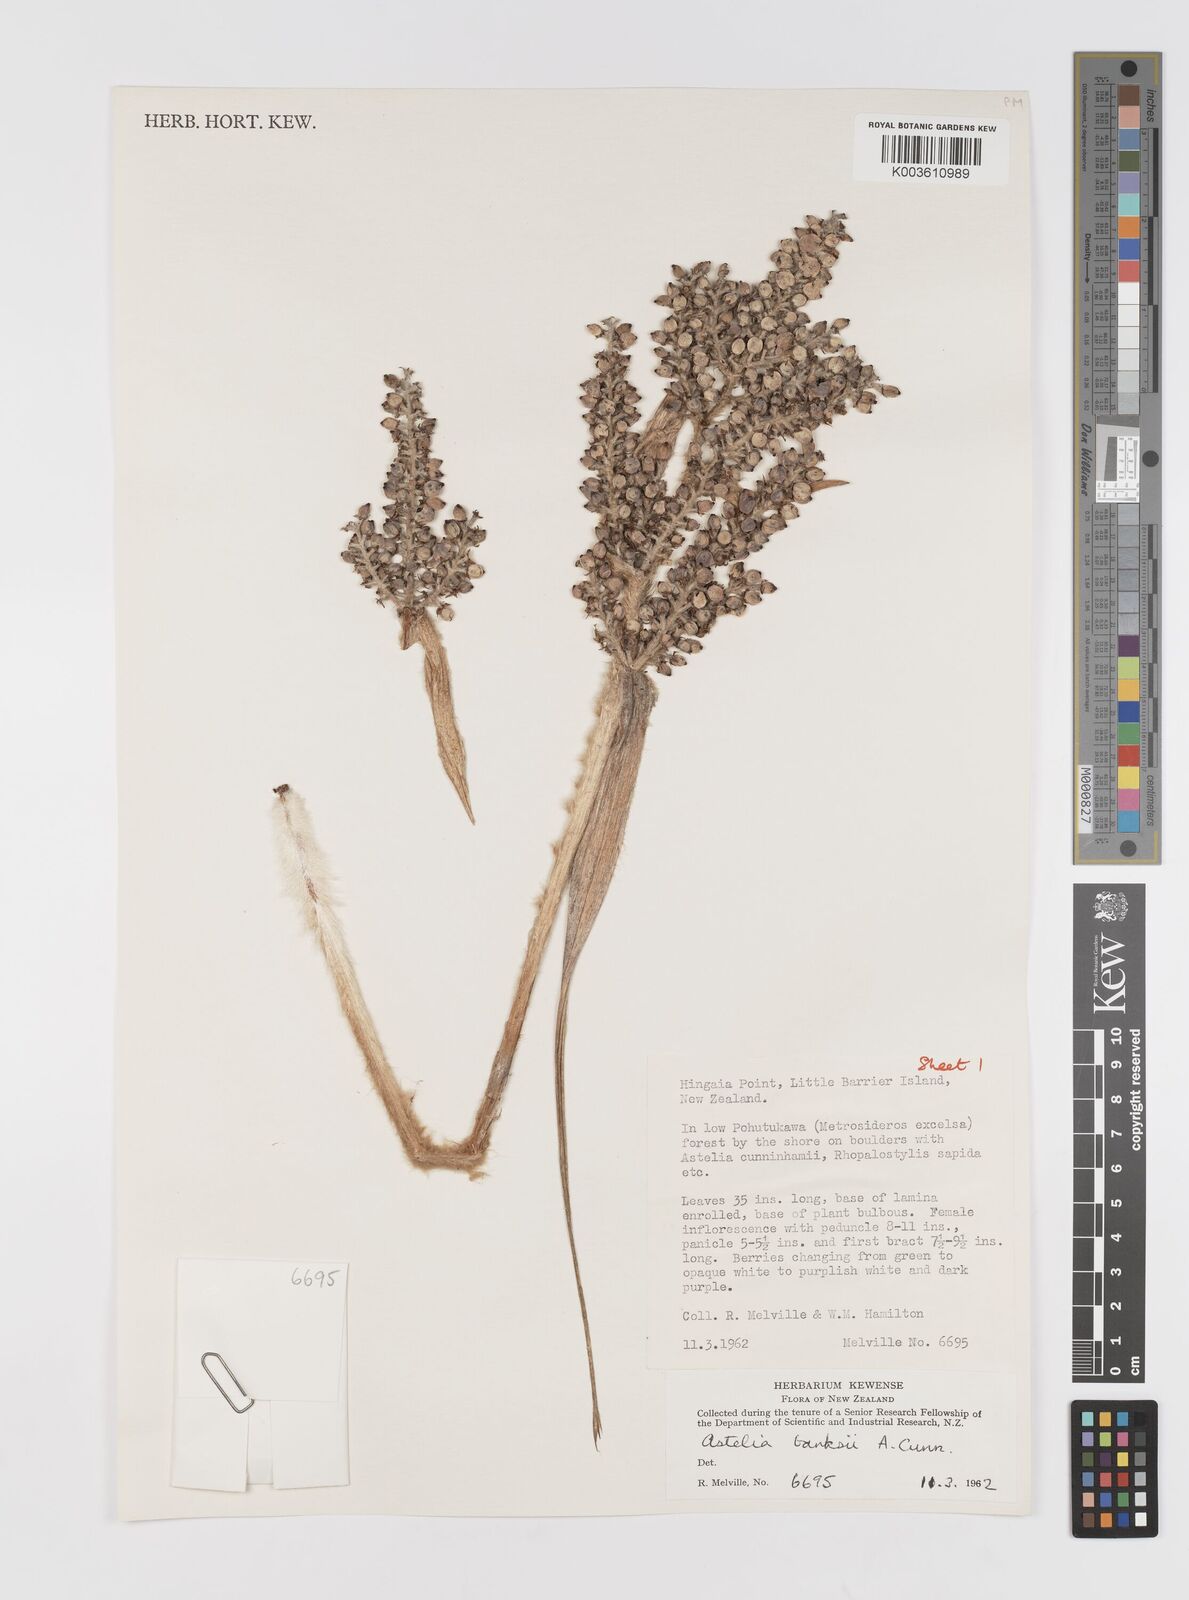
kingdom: Plantae
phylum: Tracheophyta
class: Liliopsida
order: Asparagales
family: Asteliaceae
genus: Astelia
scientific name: Astelia banksii
